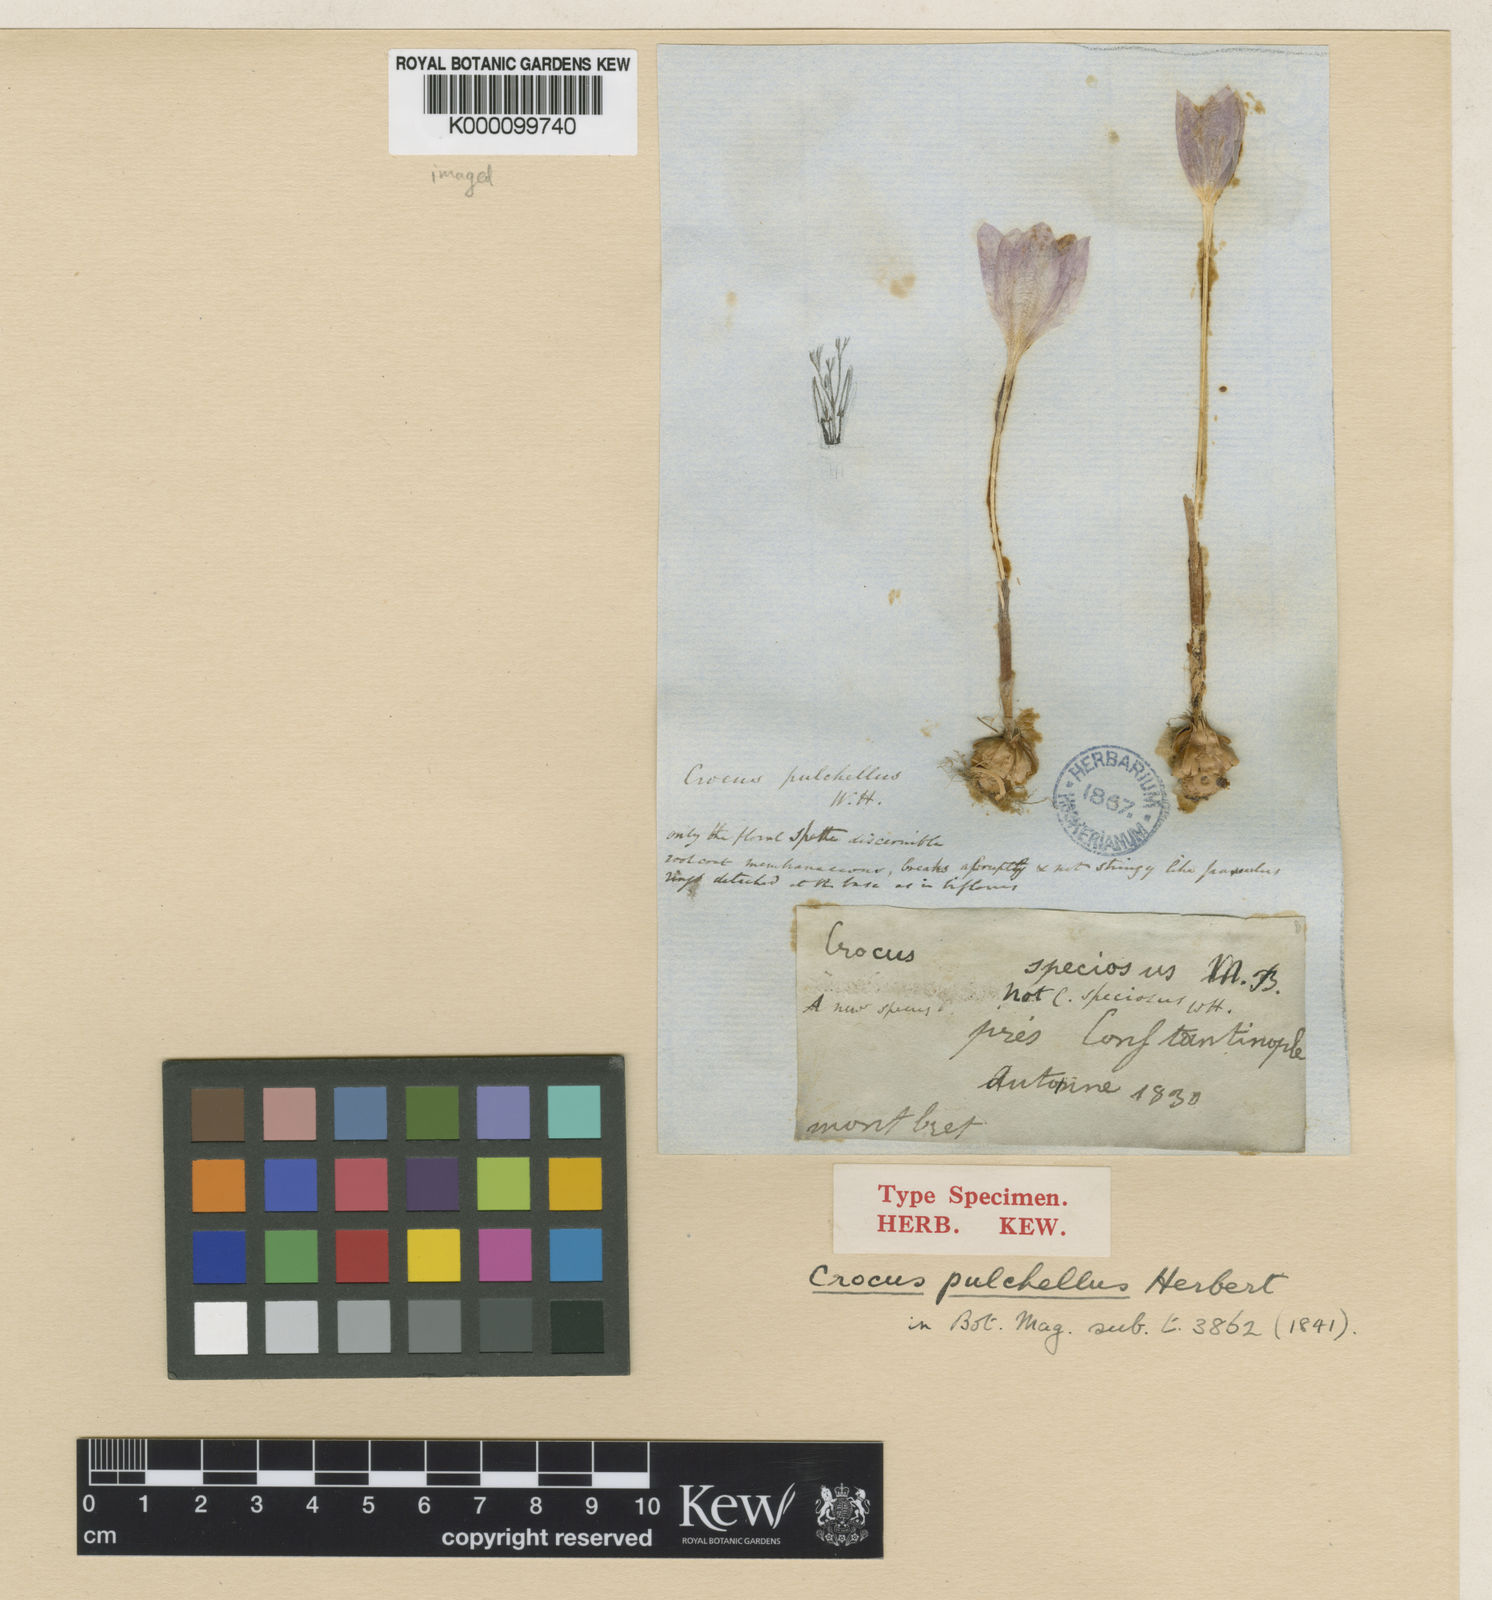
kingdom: Plantae
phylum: Tracheophyta
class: Liliopsida
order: Asparagales
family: Iridaceae
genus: Crocus
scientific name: Crocus pulchellus
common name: Hairy crocus
